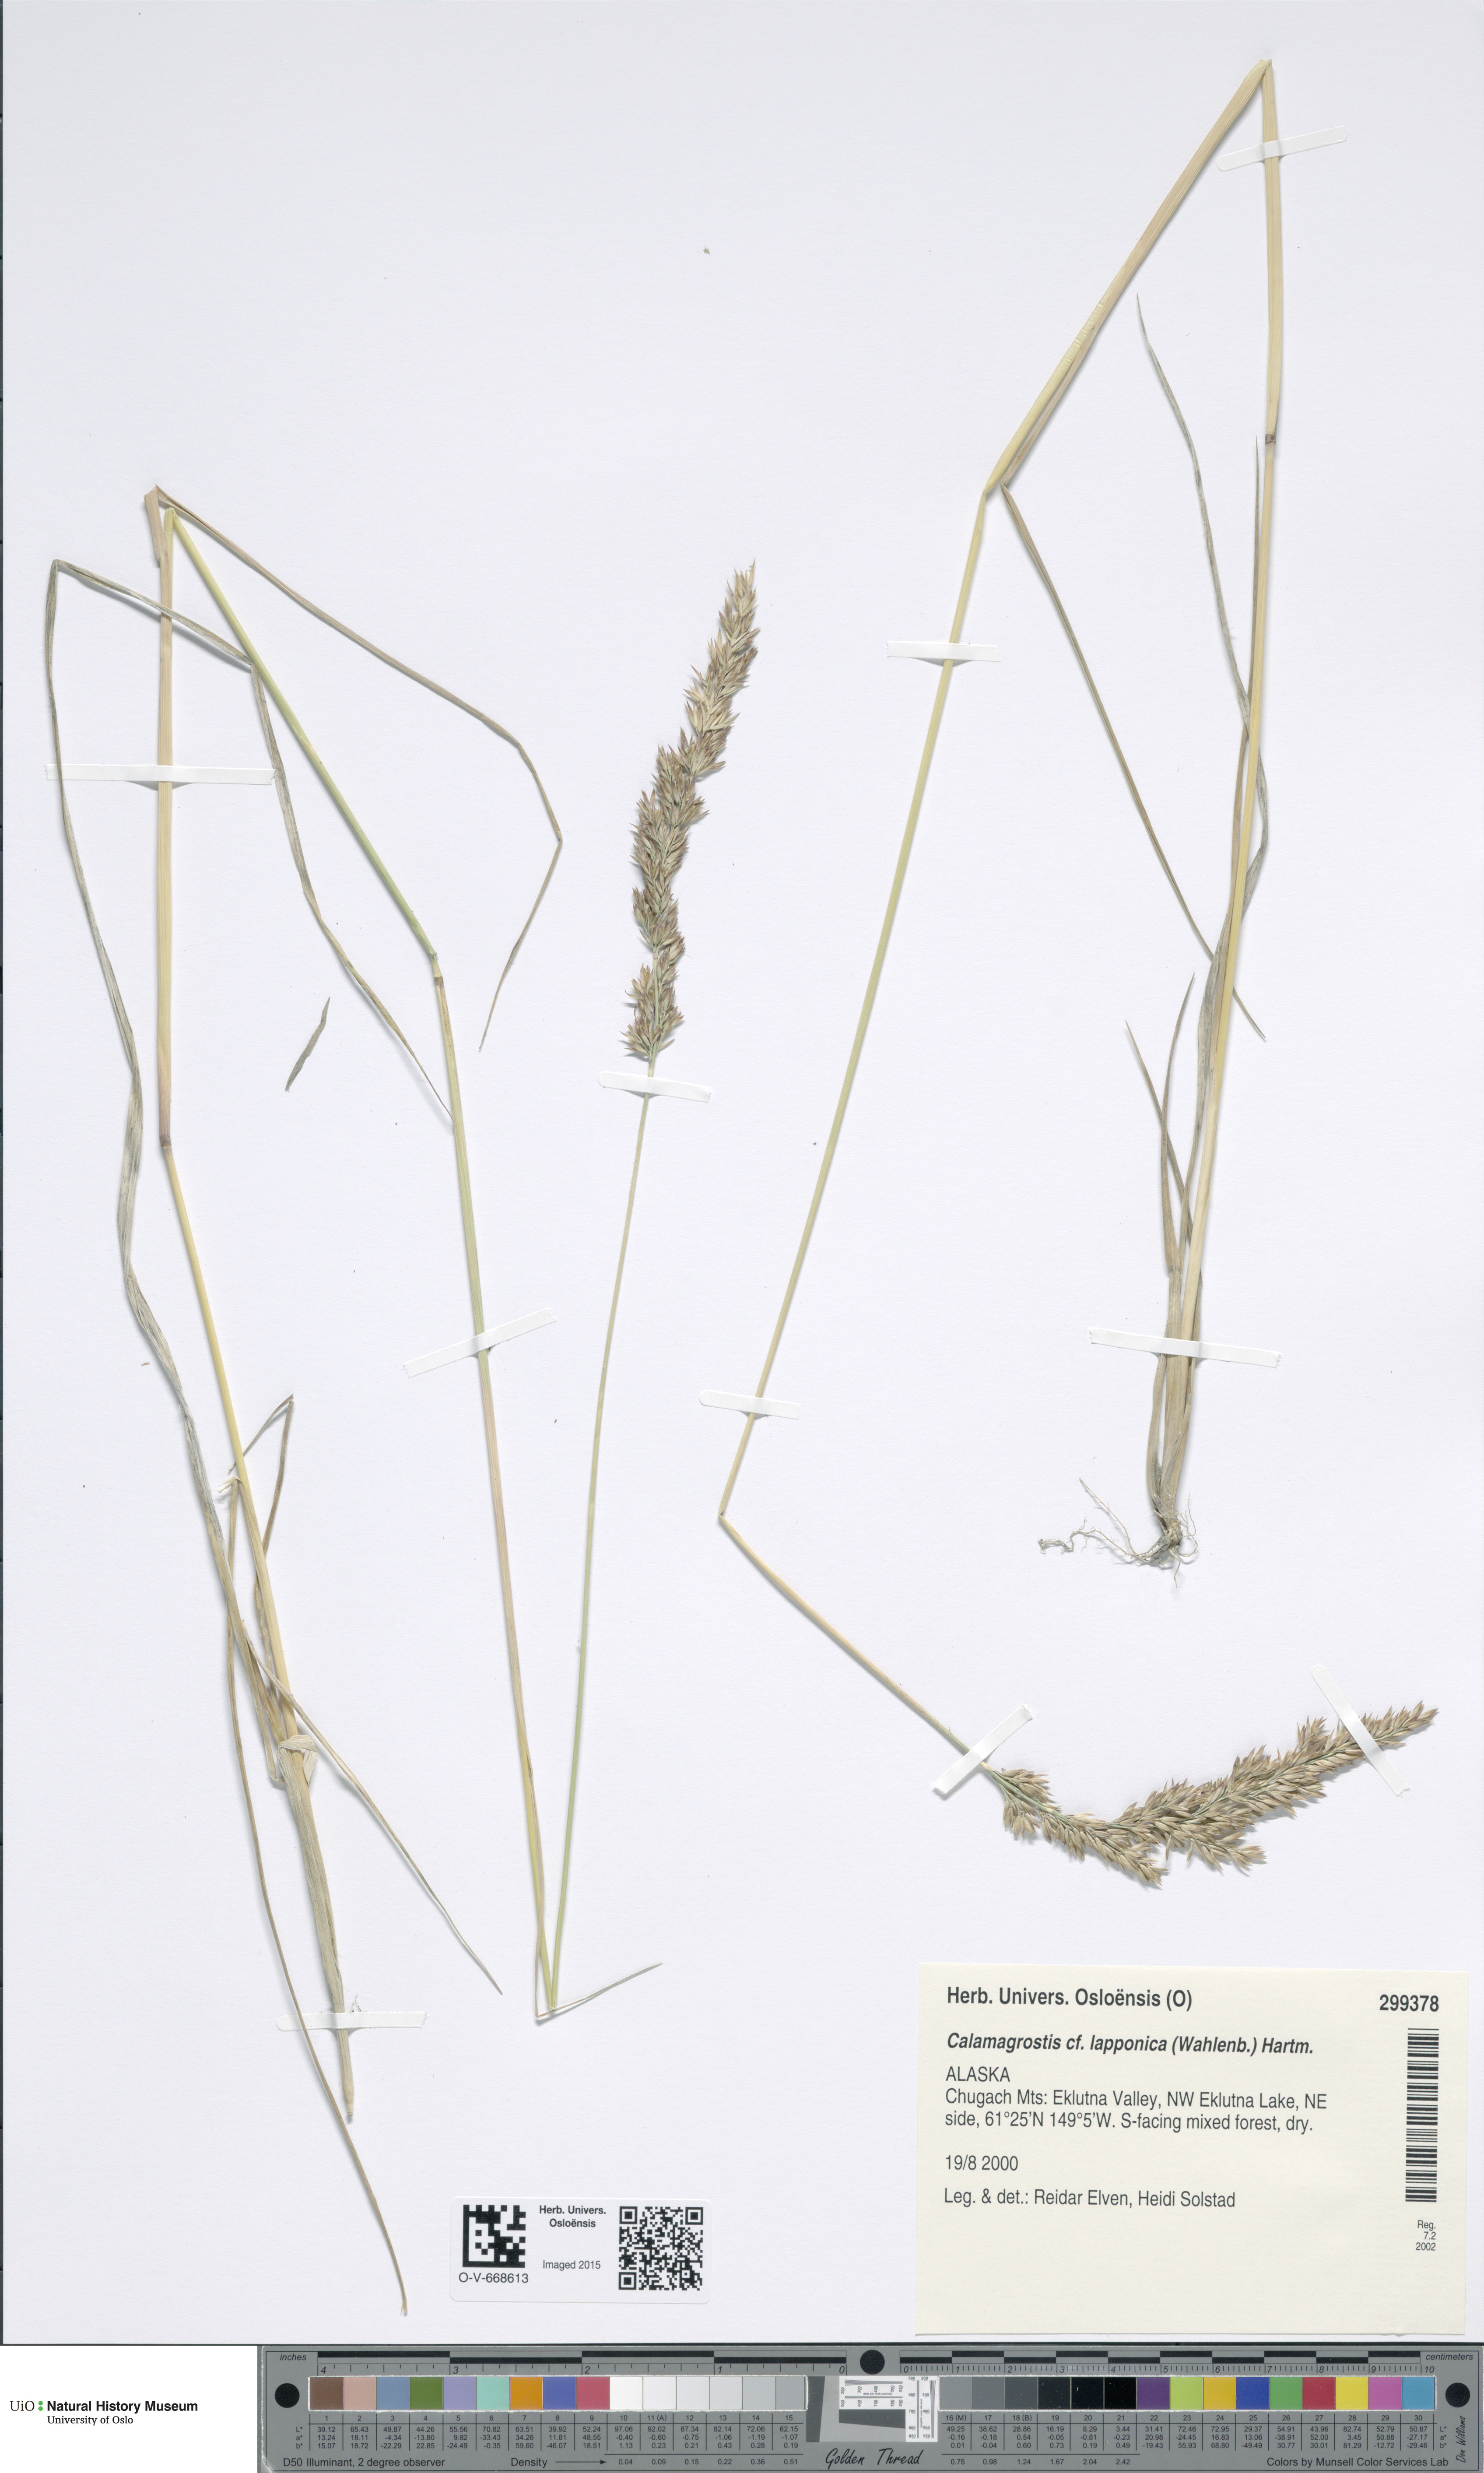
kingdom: Plantae
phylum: Tracheophyta
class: Liliopsida
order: Poales
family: Poaceae
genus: Calamagrostis
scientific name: Calamagrostis lapponica
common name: Lapland reedgrass
